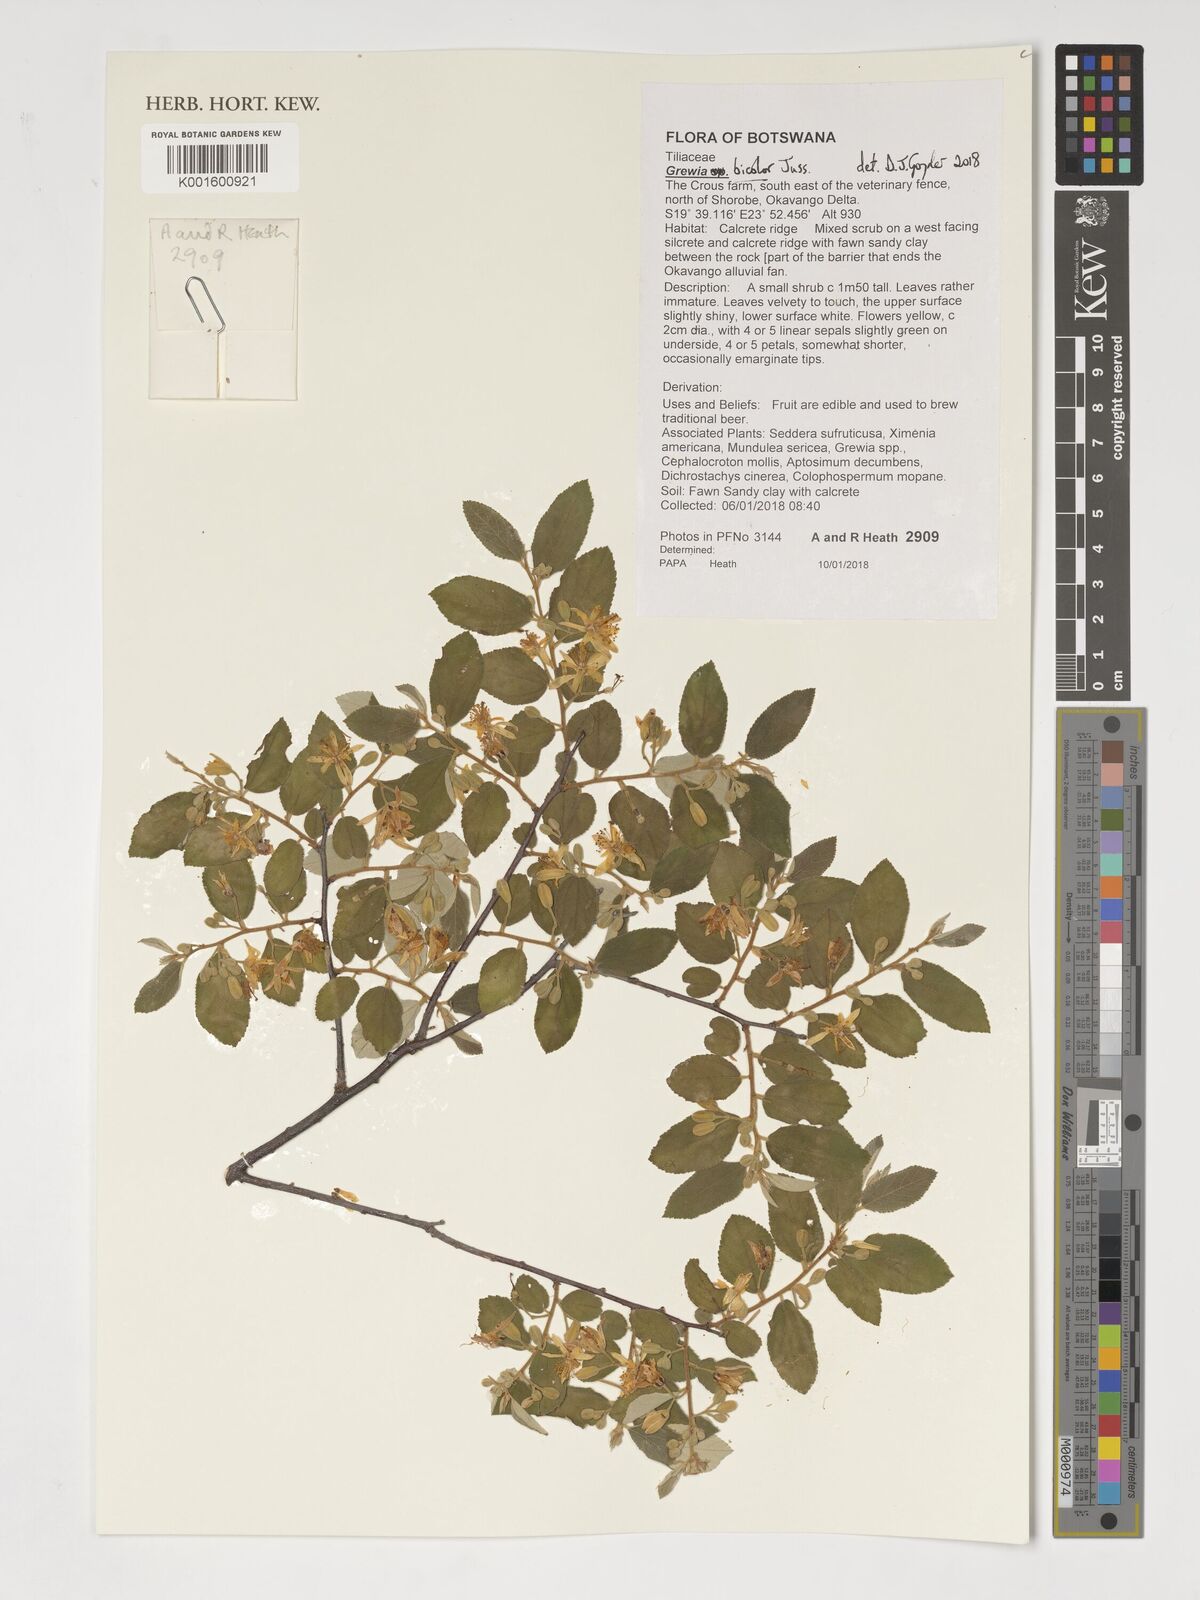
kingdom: Plantae
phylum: Tracheophyta
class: Magnoliopsida
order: Malvales
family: Malvaceae
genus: Grewia
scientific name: Grewia bicolor
